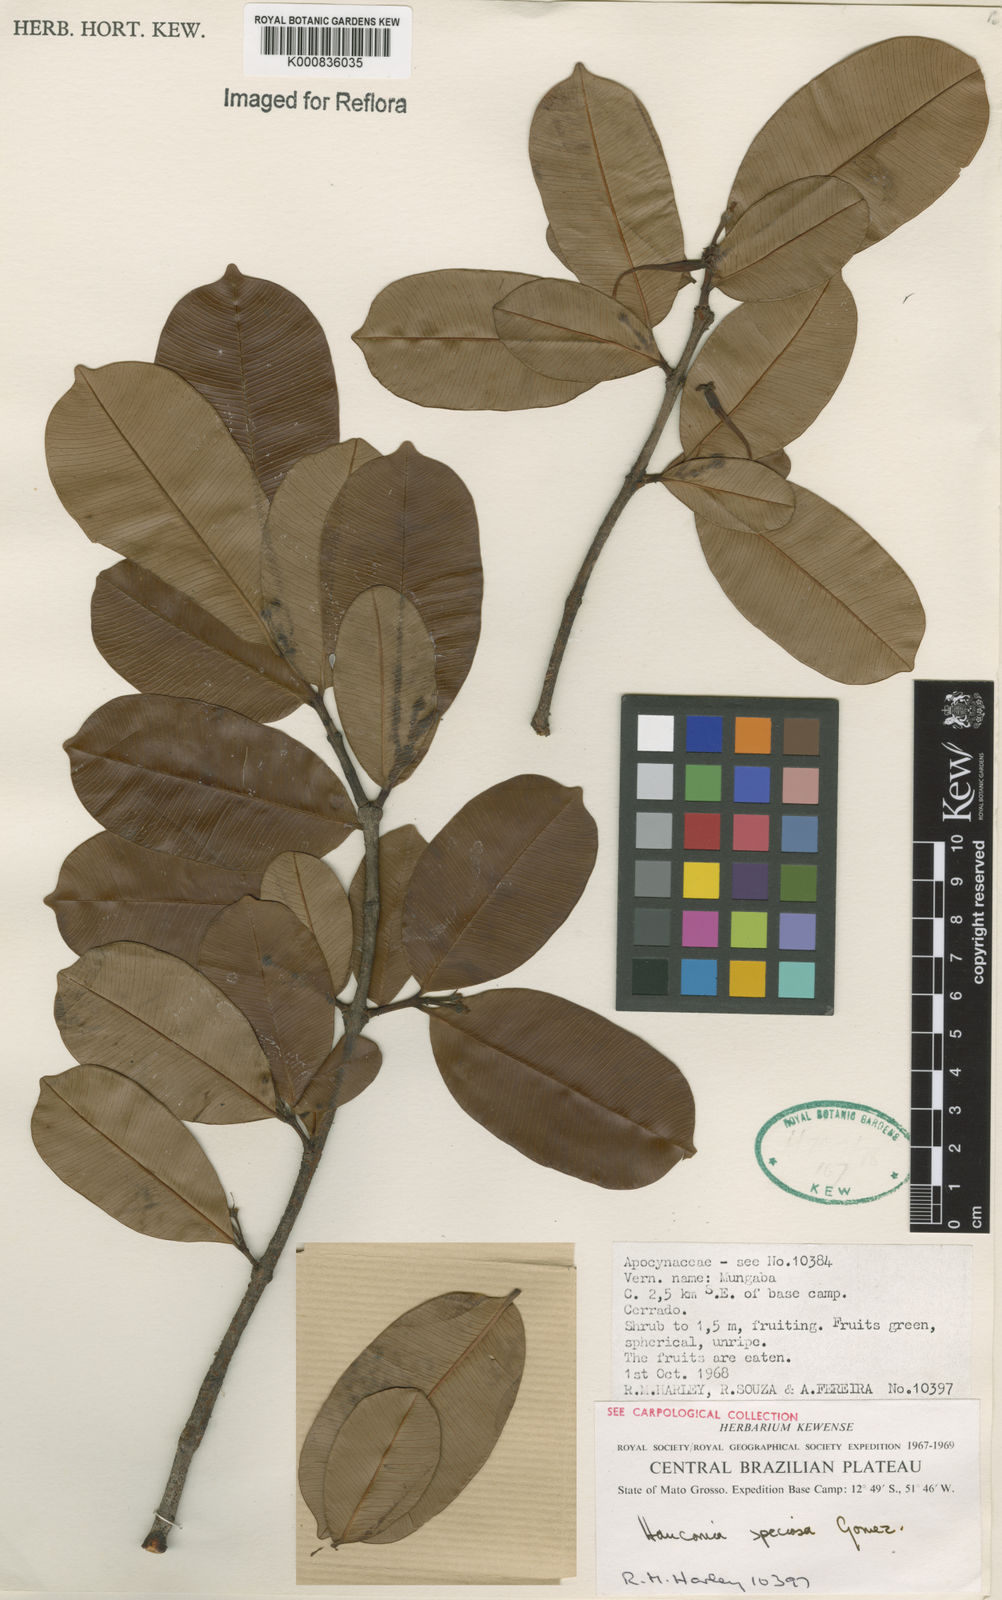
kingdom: Plantae
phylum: Tracheophyta
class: Magnoliopsida
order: Gentianales
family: Apocynaceae
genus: Hancornia
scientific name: Hancornia speciosa
